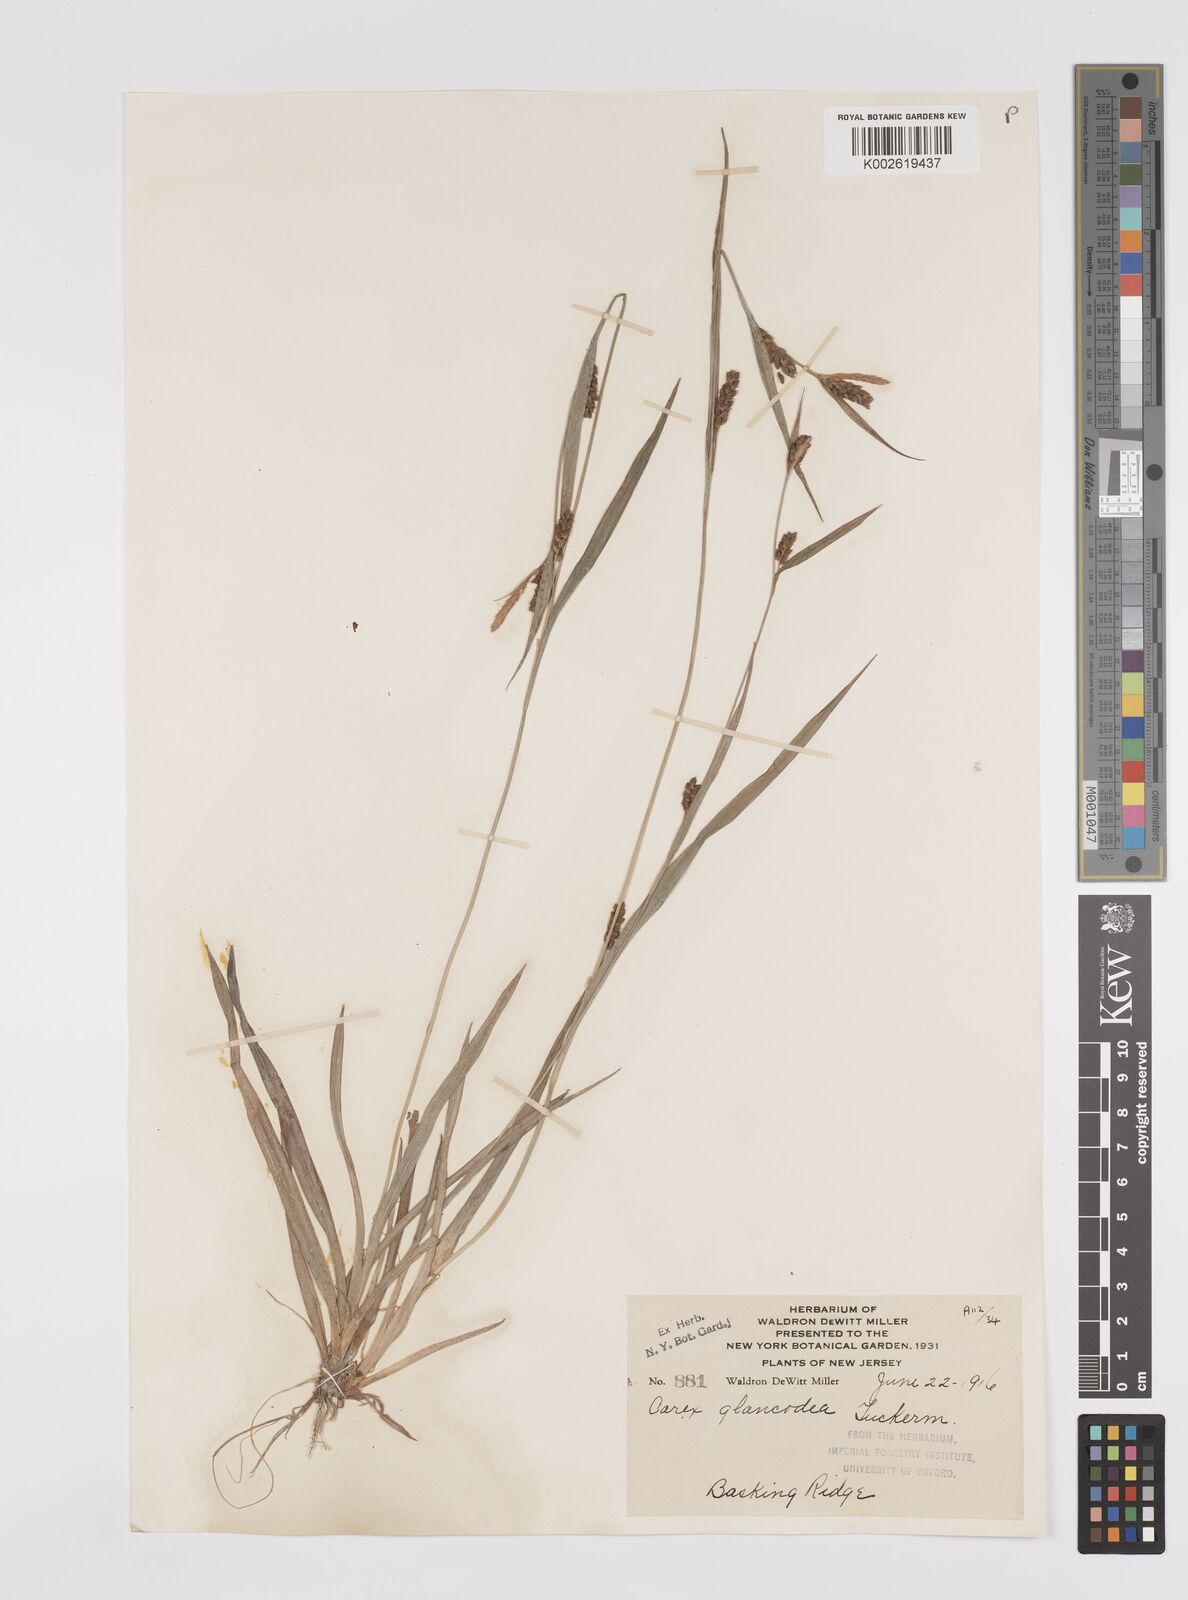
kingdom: Plantae
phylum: Tracheophyta
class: Liliopsida
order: Poales
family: Cyperaceae
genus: Carex
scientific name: Carex glaucodea
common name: Blue sedge
